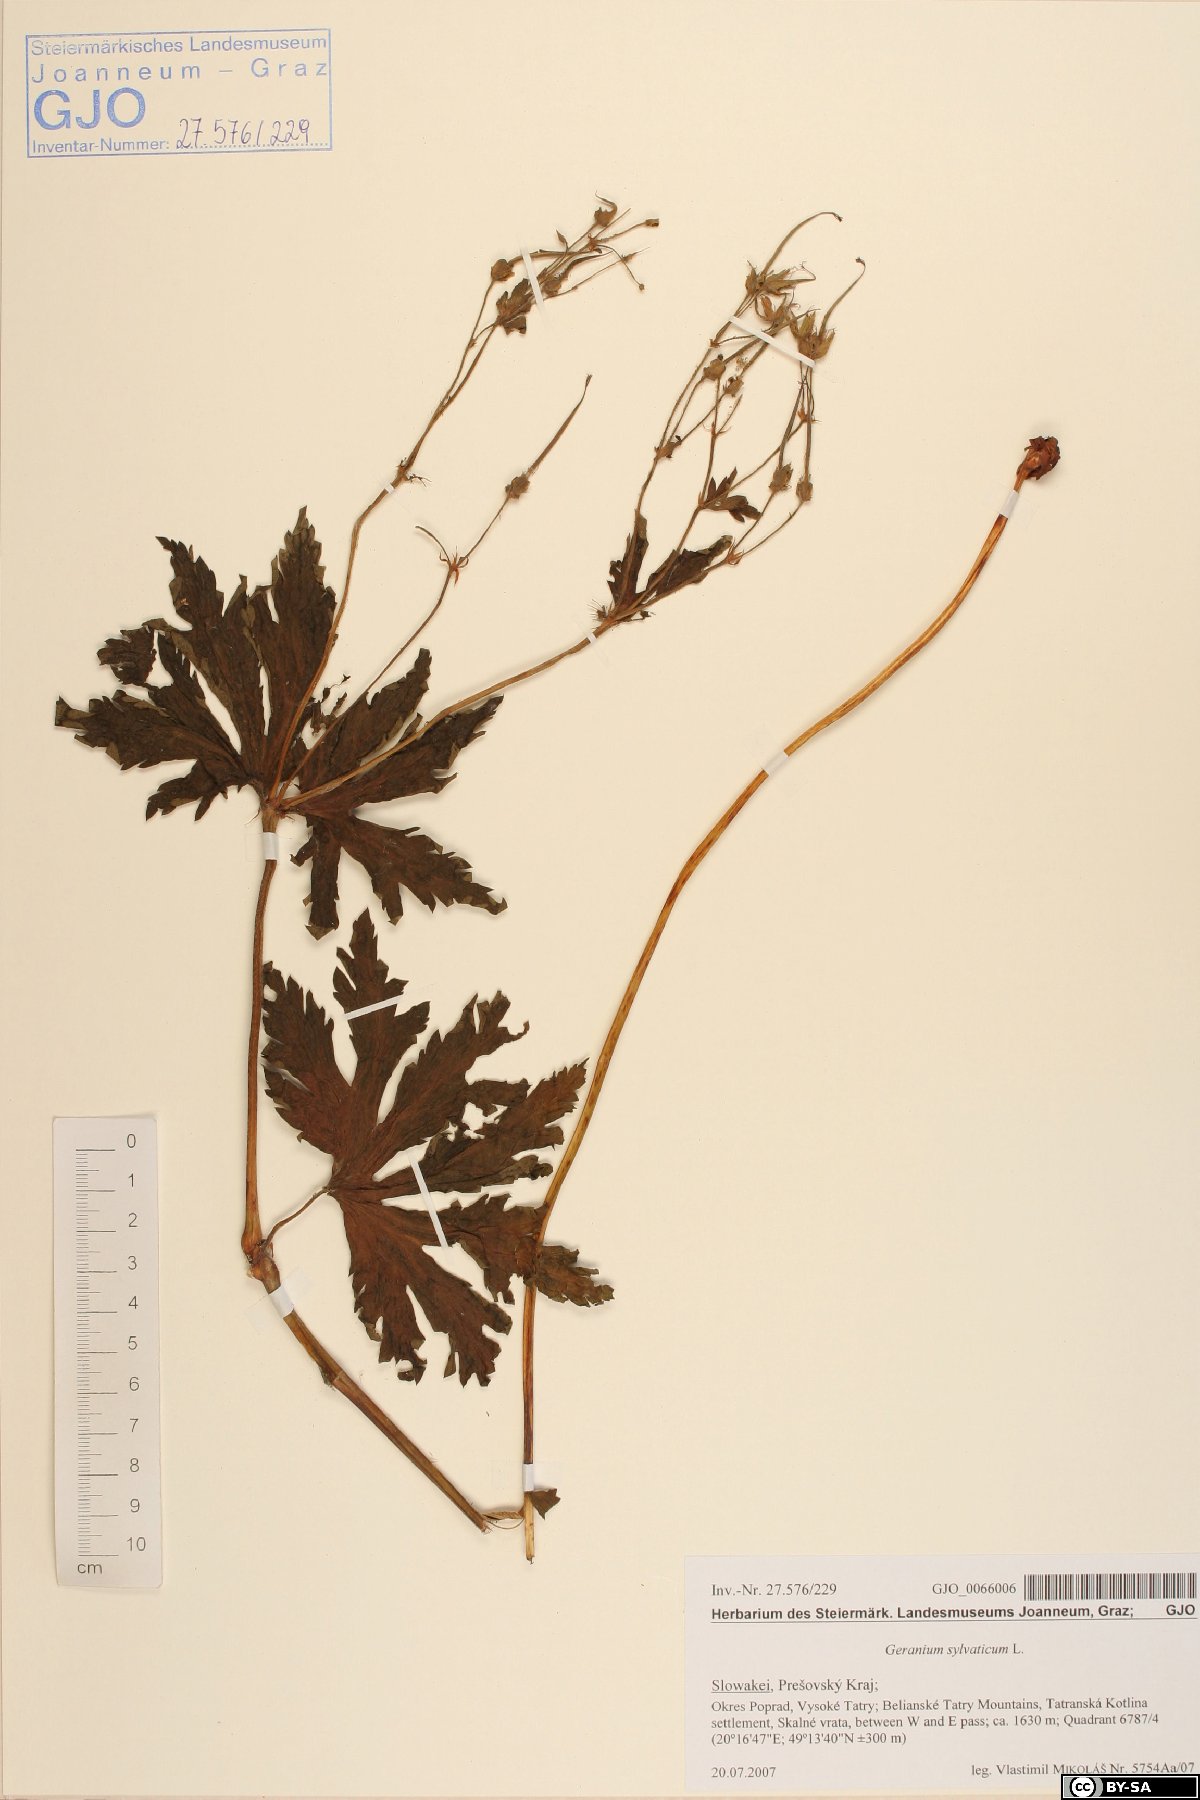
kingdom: Plantae
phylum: Tracheophyta
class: Magnoliopsida
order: Geraniales
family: Geraniaceae
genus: Geranium
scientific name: Geranium sylvaticum
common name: Wood crane's-bill
